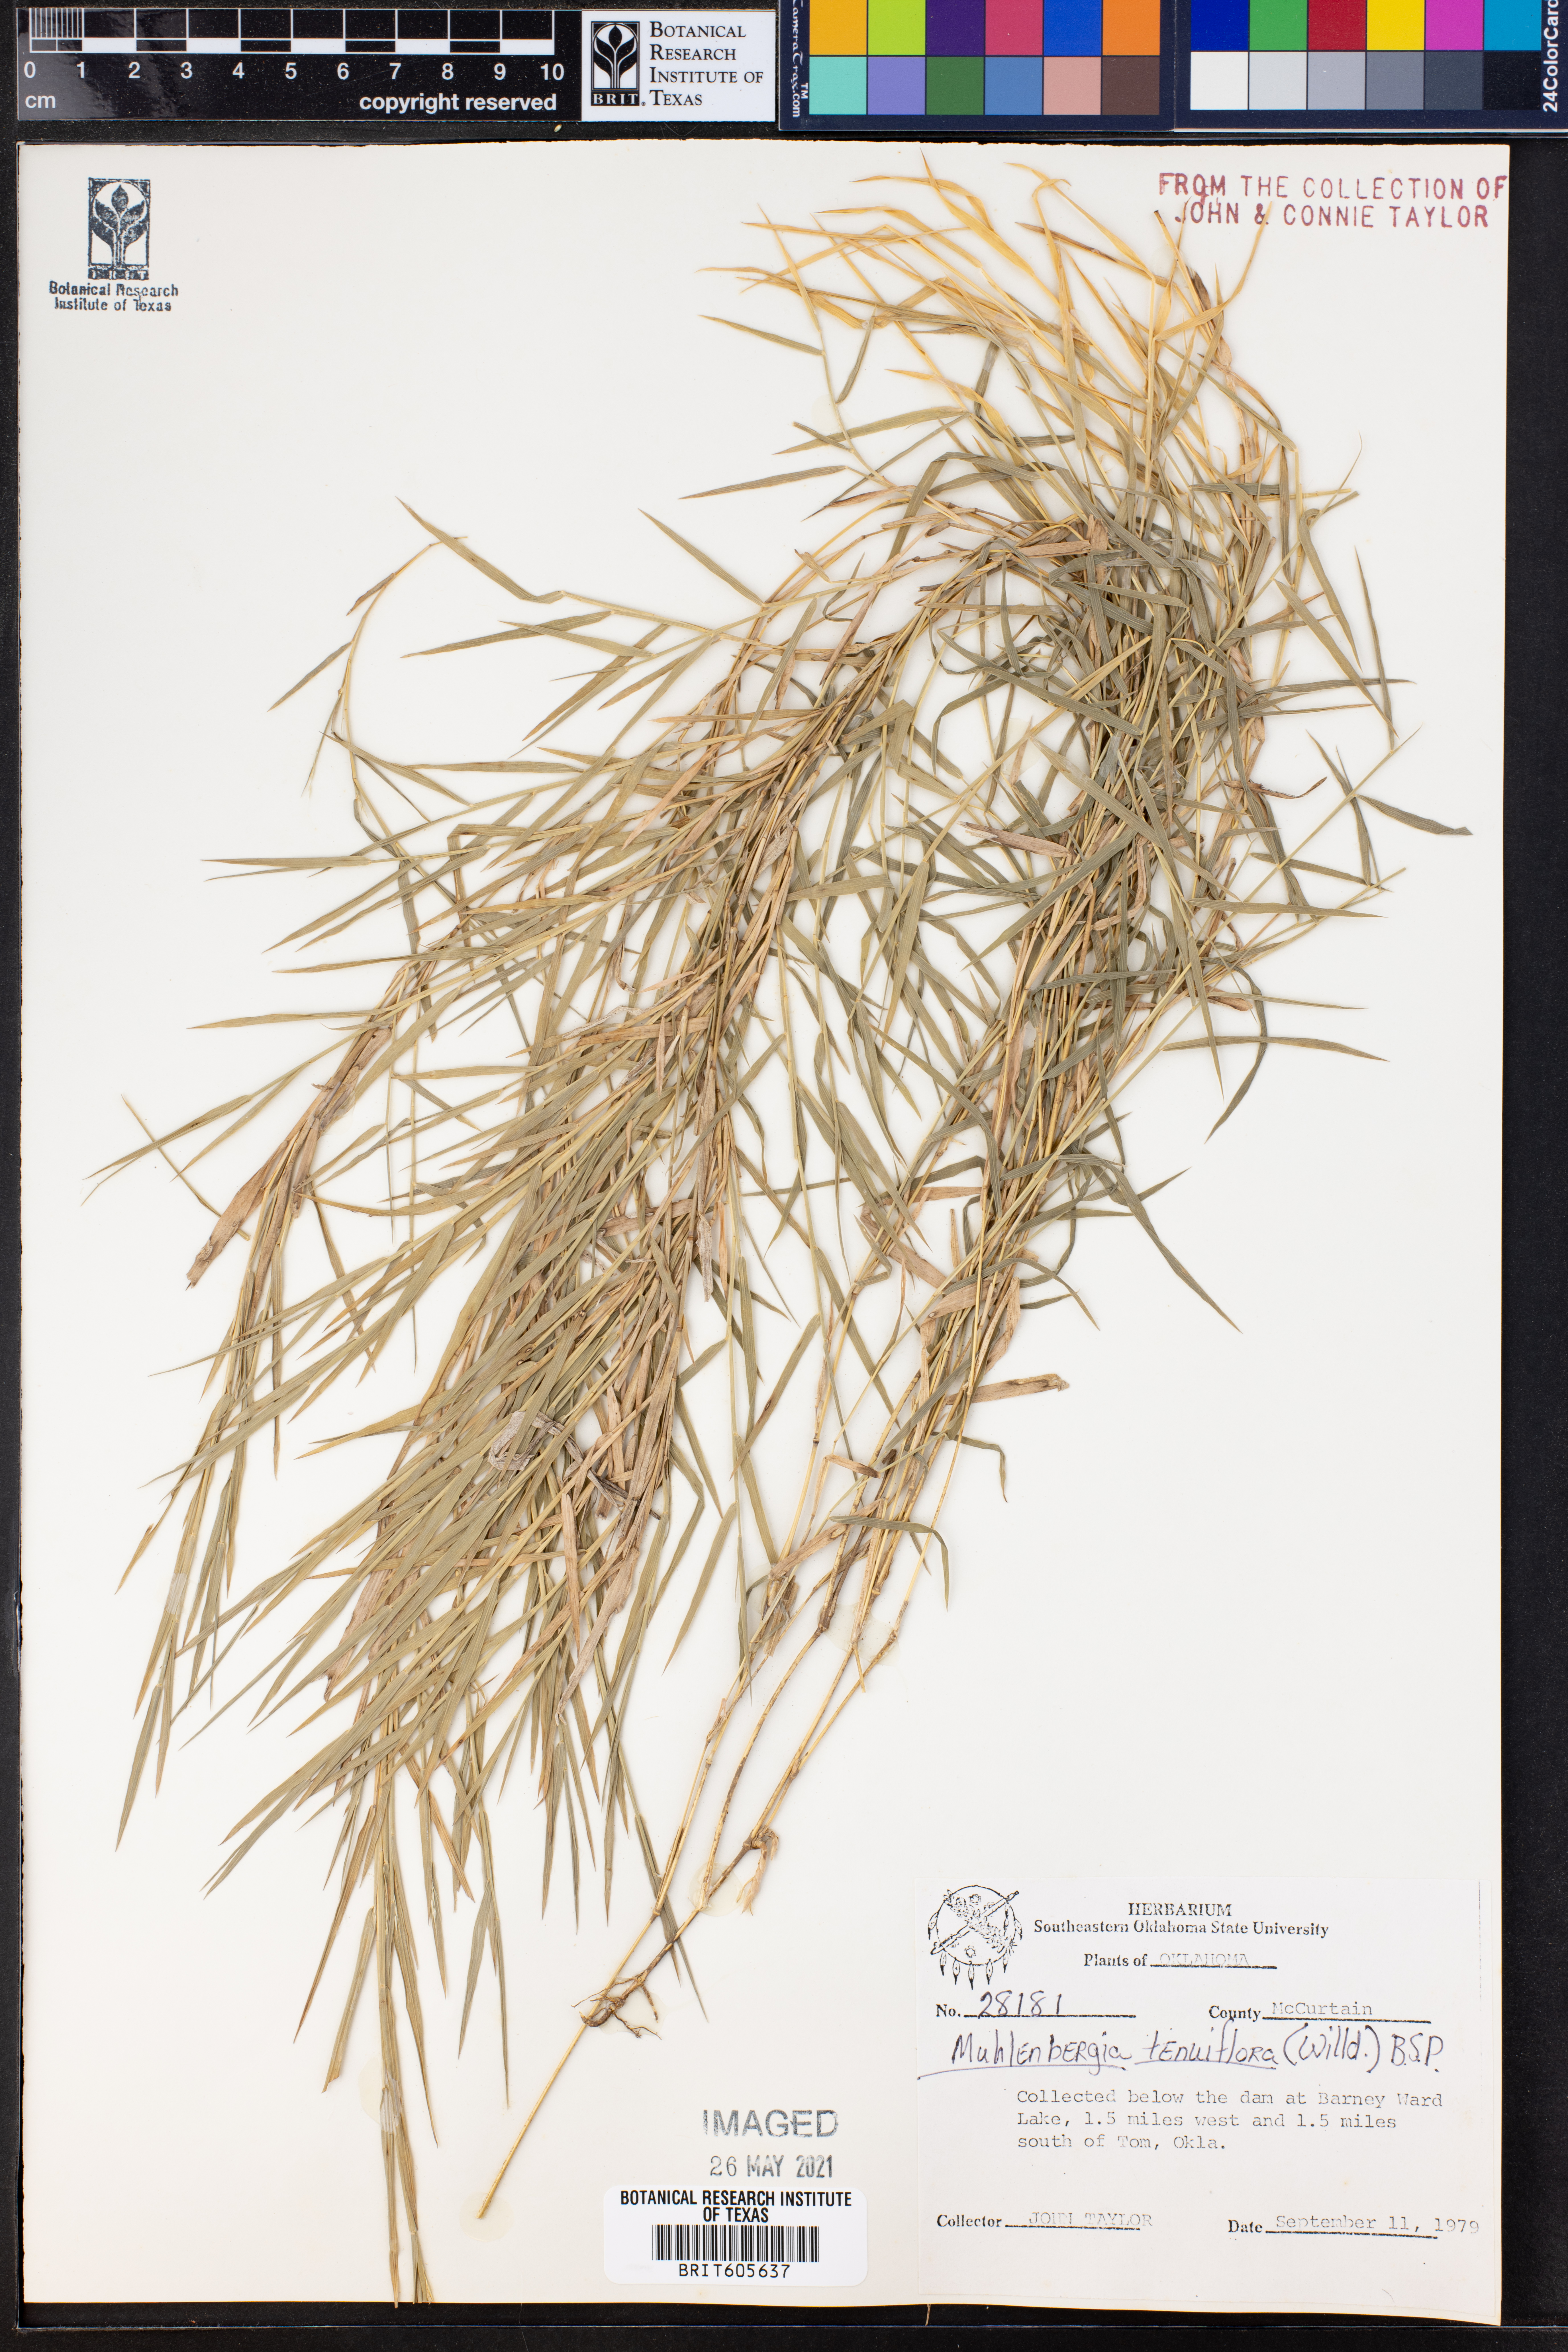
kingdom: Plantae
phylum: Tracheophyta
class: Liliopsida
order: Poales
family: Poaceae
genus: Muhlenbergia
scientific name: Muhlenbergia tenuiflora
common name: Slender muhly
